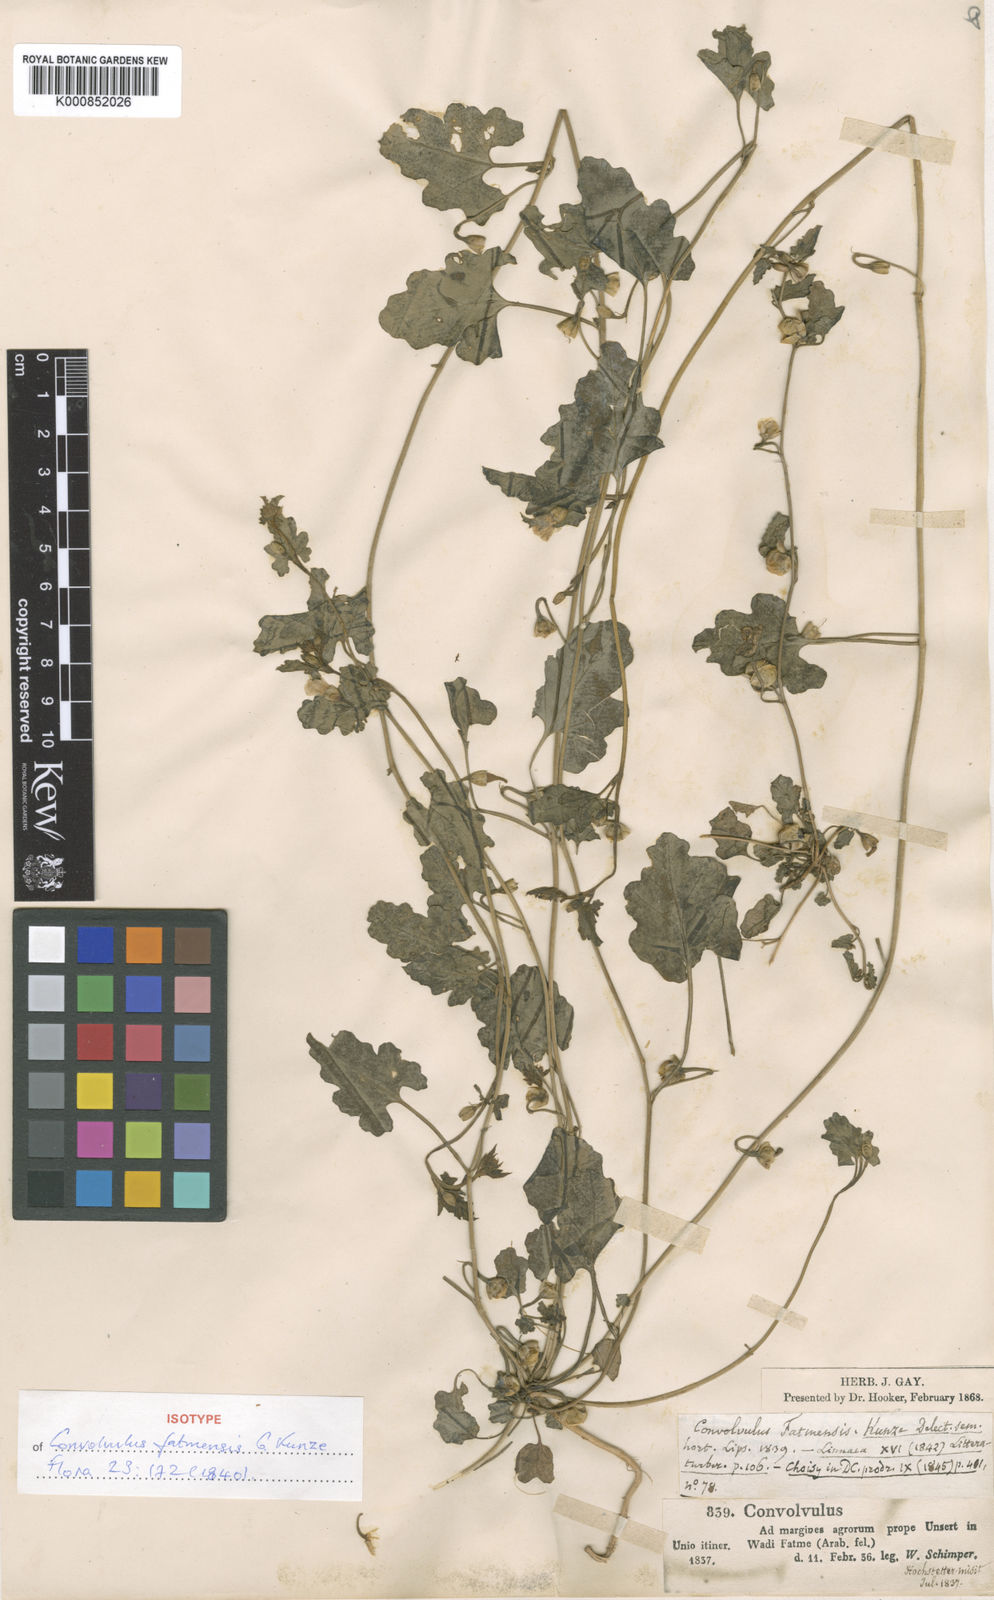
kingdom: Plantae
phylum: Tracheophyta
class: Magnoliopsida
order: Solanales
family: Convolvulaceae
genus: Convolvulus
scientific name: Convolvulus fatmensis
